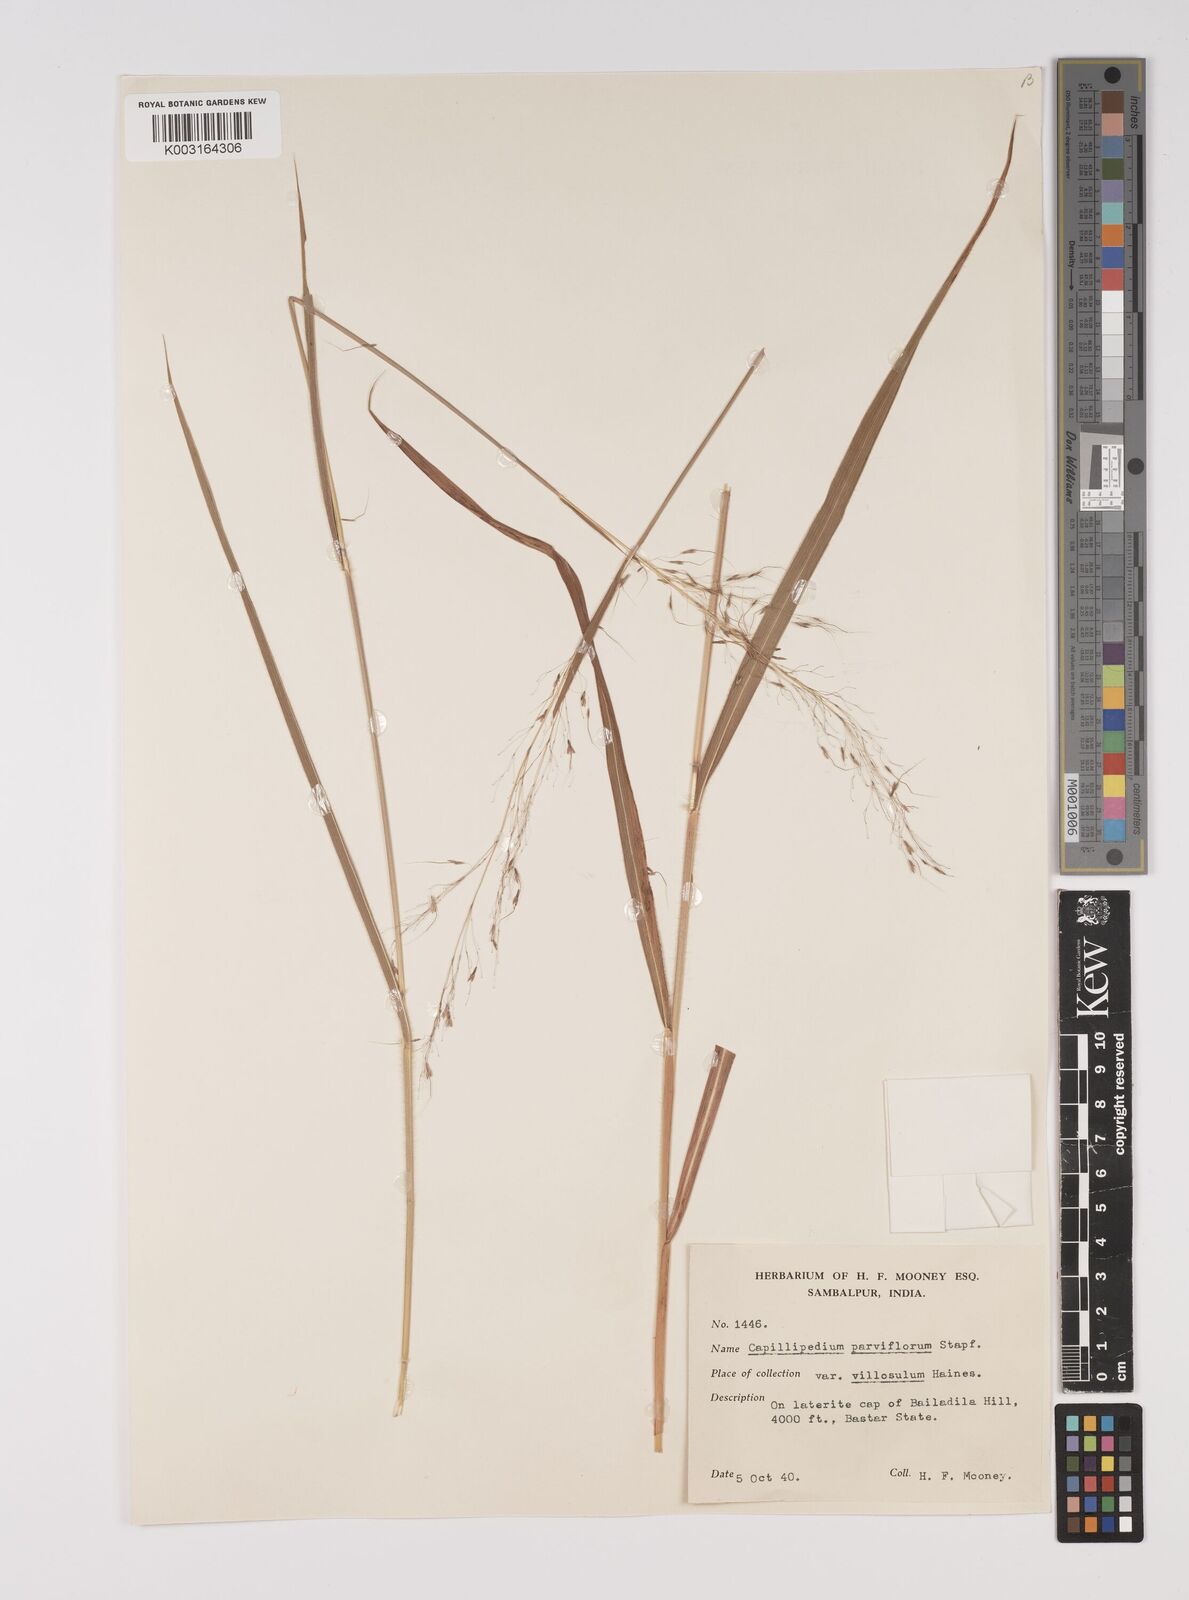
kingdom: Plantae
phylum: Tracheophyta
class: Liliopsida
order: Poales
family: Poaceae
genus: Capillipedium
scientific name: Capillipedium parviflorum
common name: Golden-beard
